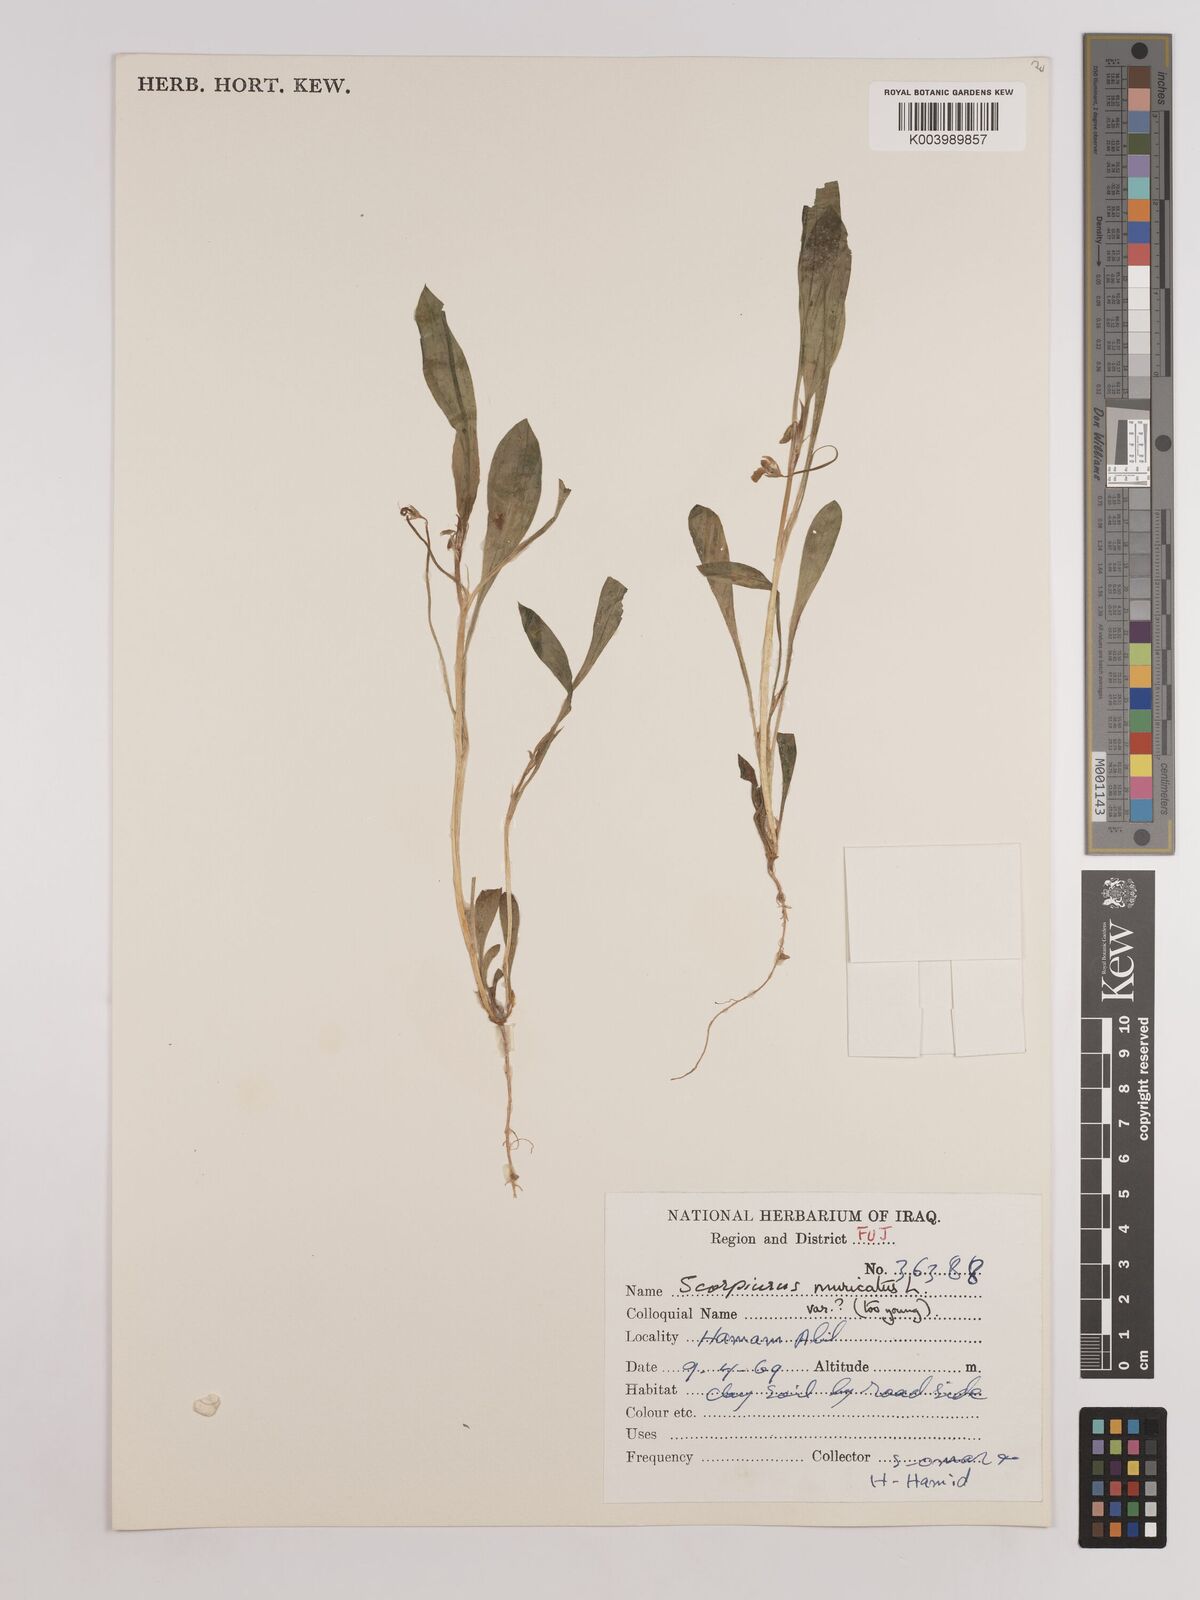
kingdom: Plantae
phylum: Tracheophyta
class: Magnoliopsida
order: Fabales
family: Fabaceae
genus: Scorpiurus
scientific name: Scorpiurus muricatus
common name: Caterpillar-plant
